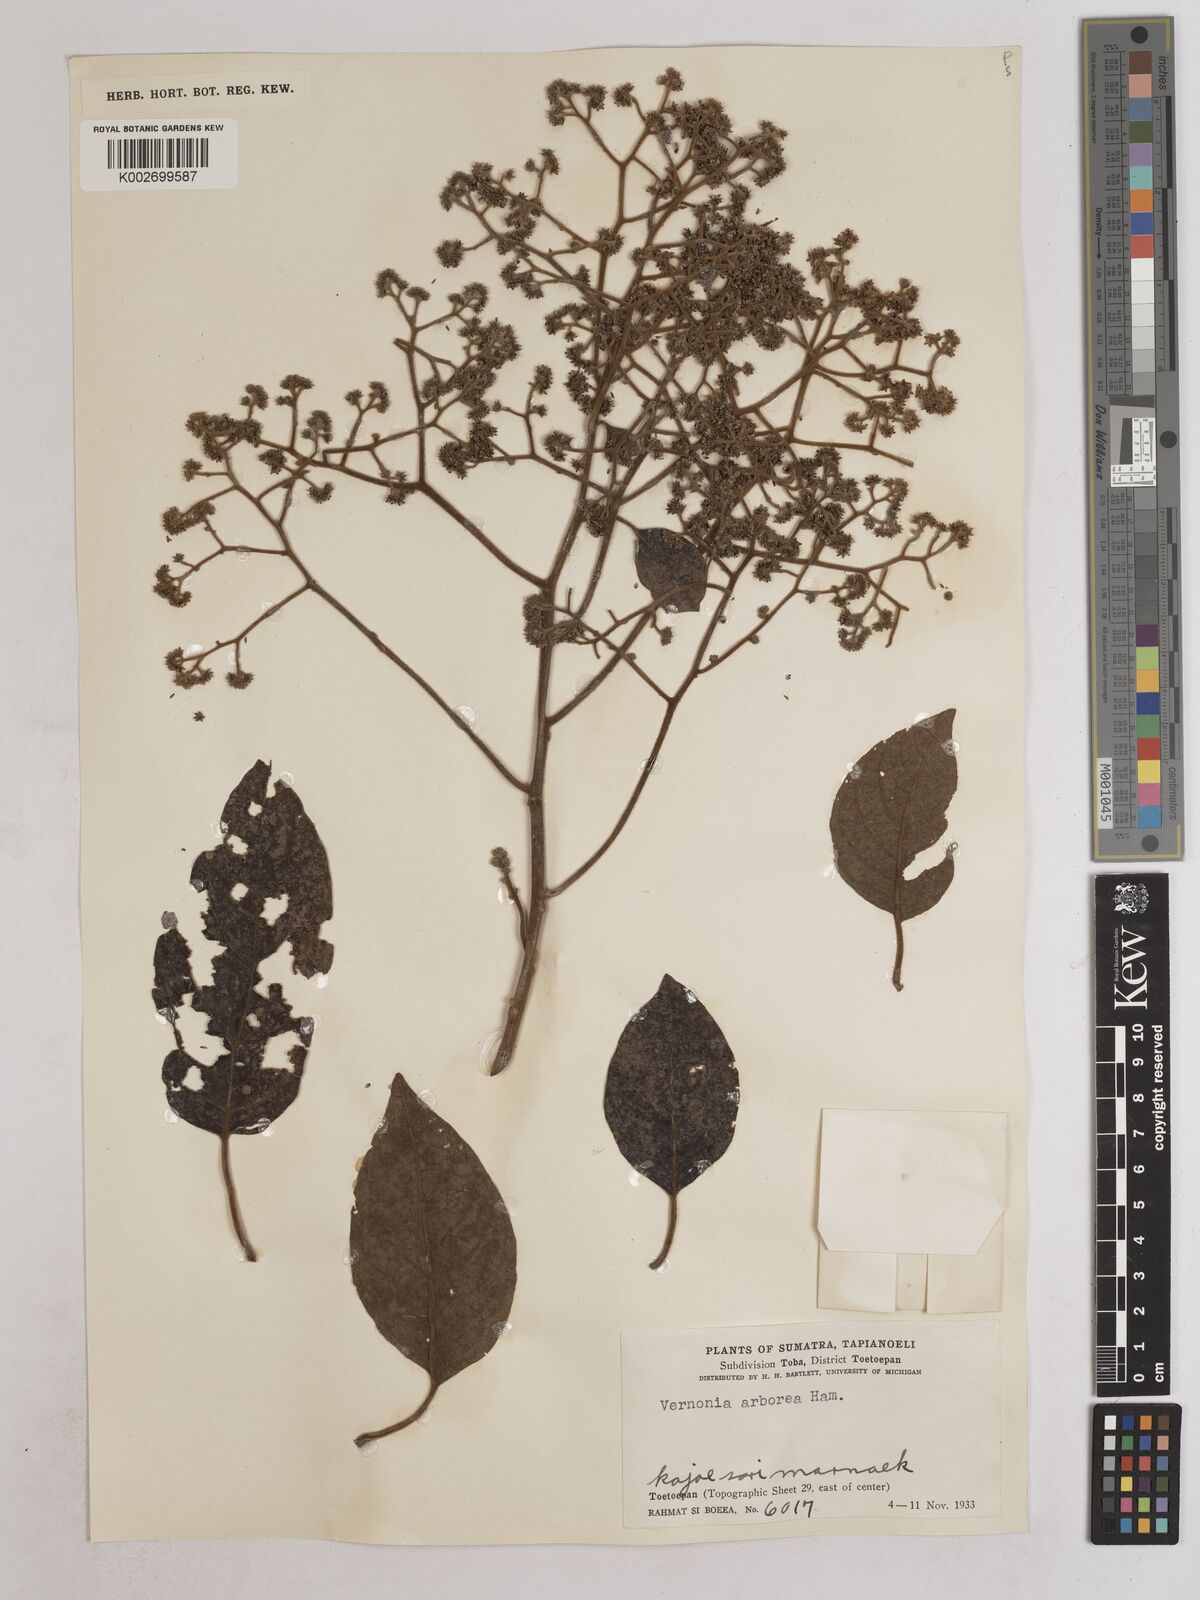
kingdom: Plantae
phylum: Tracheophyta
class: Magnoliopsida
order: Asterales
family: Asteraceae
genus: Strobocalyx
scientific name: Strobocalyx arborea
